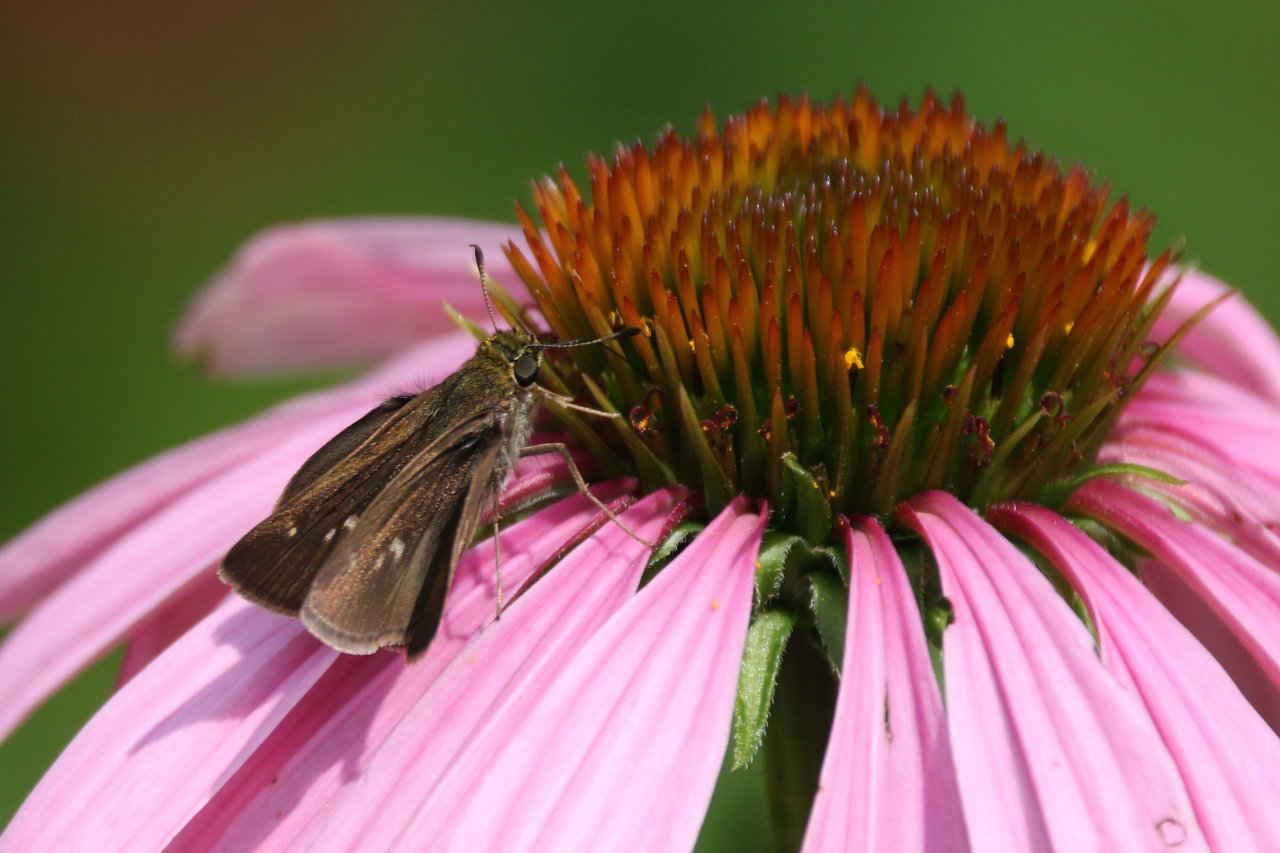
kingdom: Animalia
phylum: Arthropoda
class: Insecta
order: Lepidoptera
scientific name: Lepidoptera
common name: Butterflies
